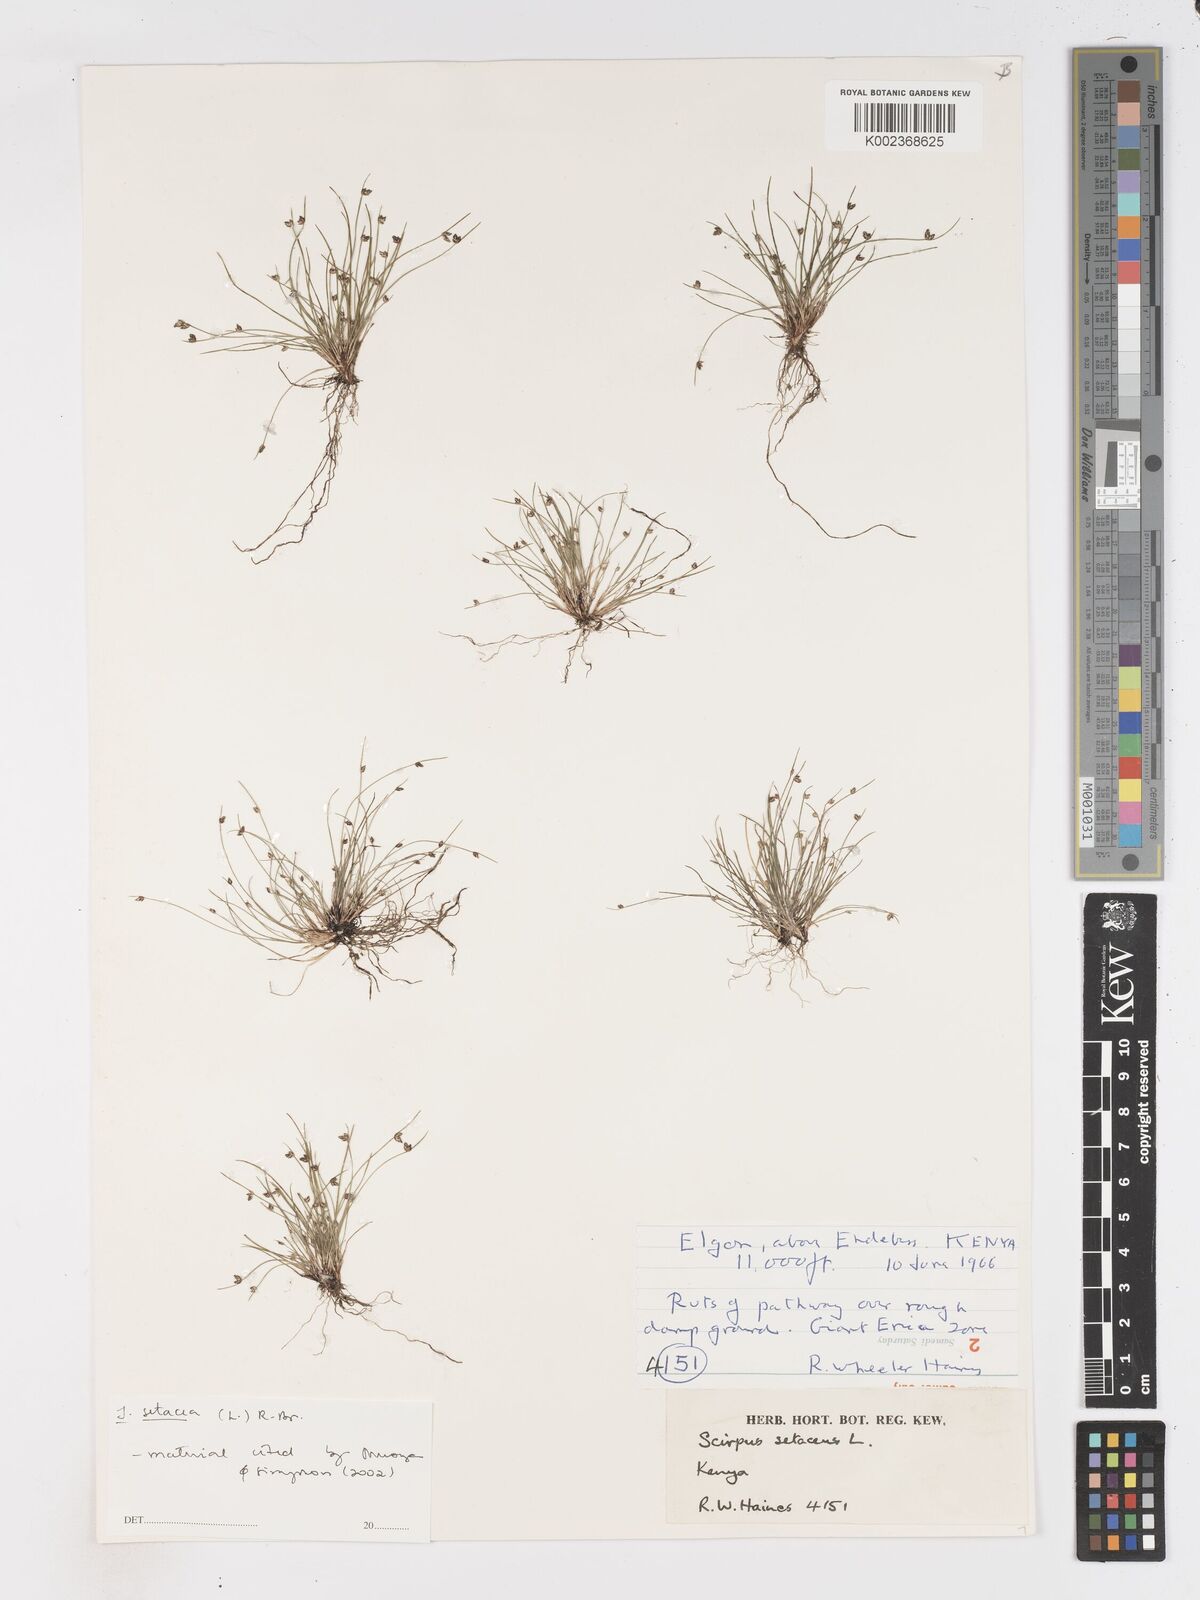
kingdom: Plantae
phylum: Tracheophyta
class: Liliopsida
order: Poales
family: Cyperaceae
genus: Isolepis
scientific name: Isolepis setacea
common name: Bristle club-rush
